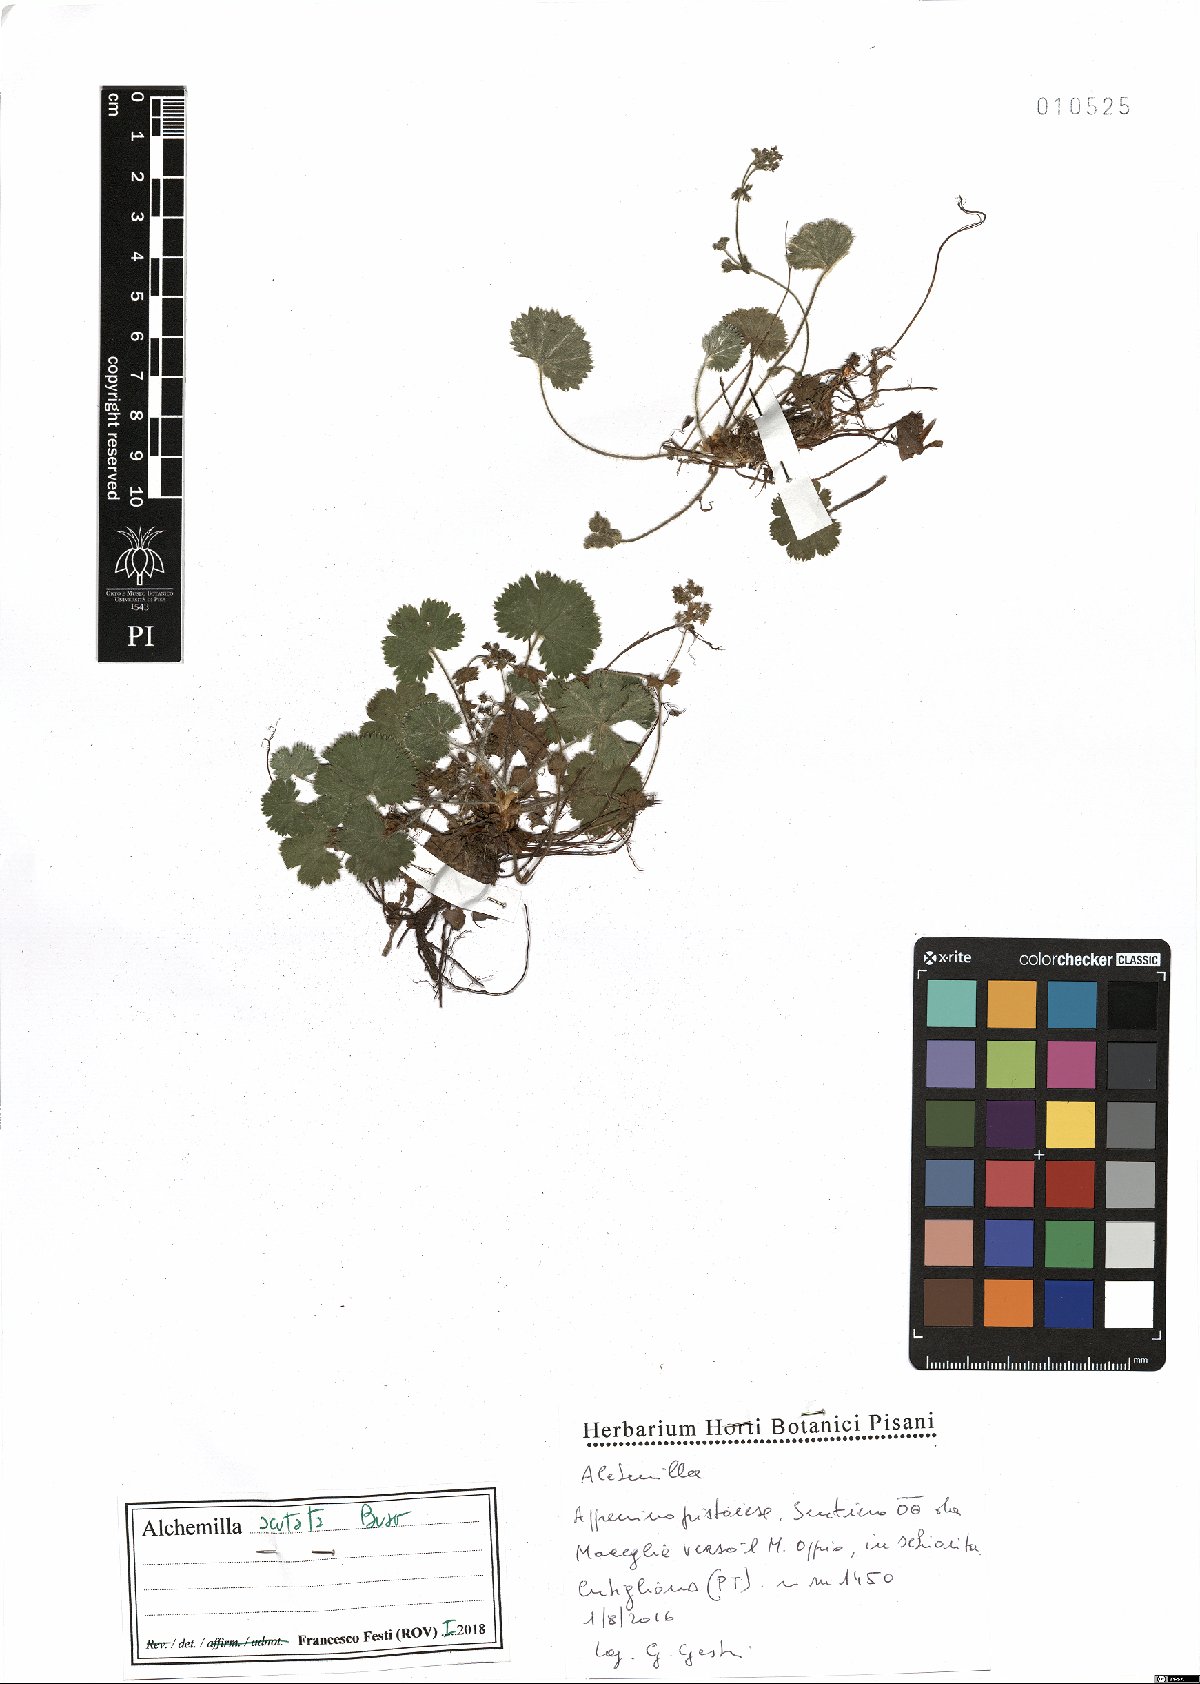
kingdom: Plantae
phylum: Tracheophyta
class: Magnoliopsida
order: Rosales
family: Rosaceae
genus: Alchemilla
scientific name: Alchemilla acutata
